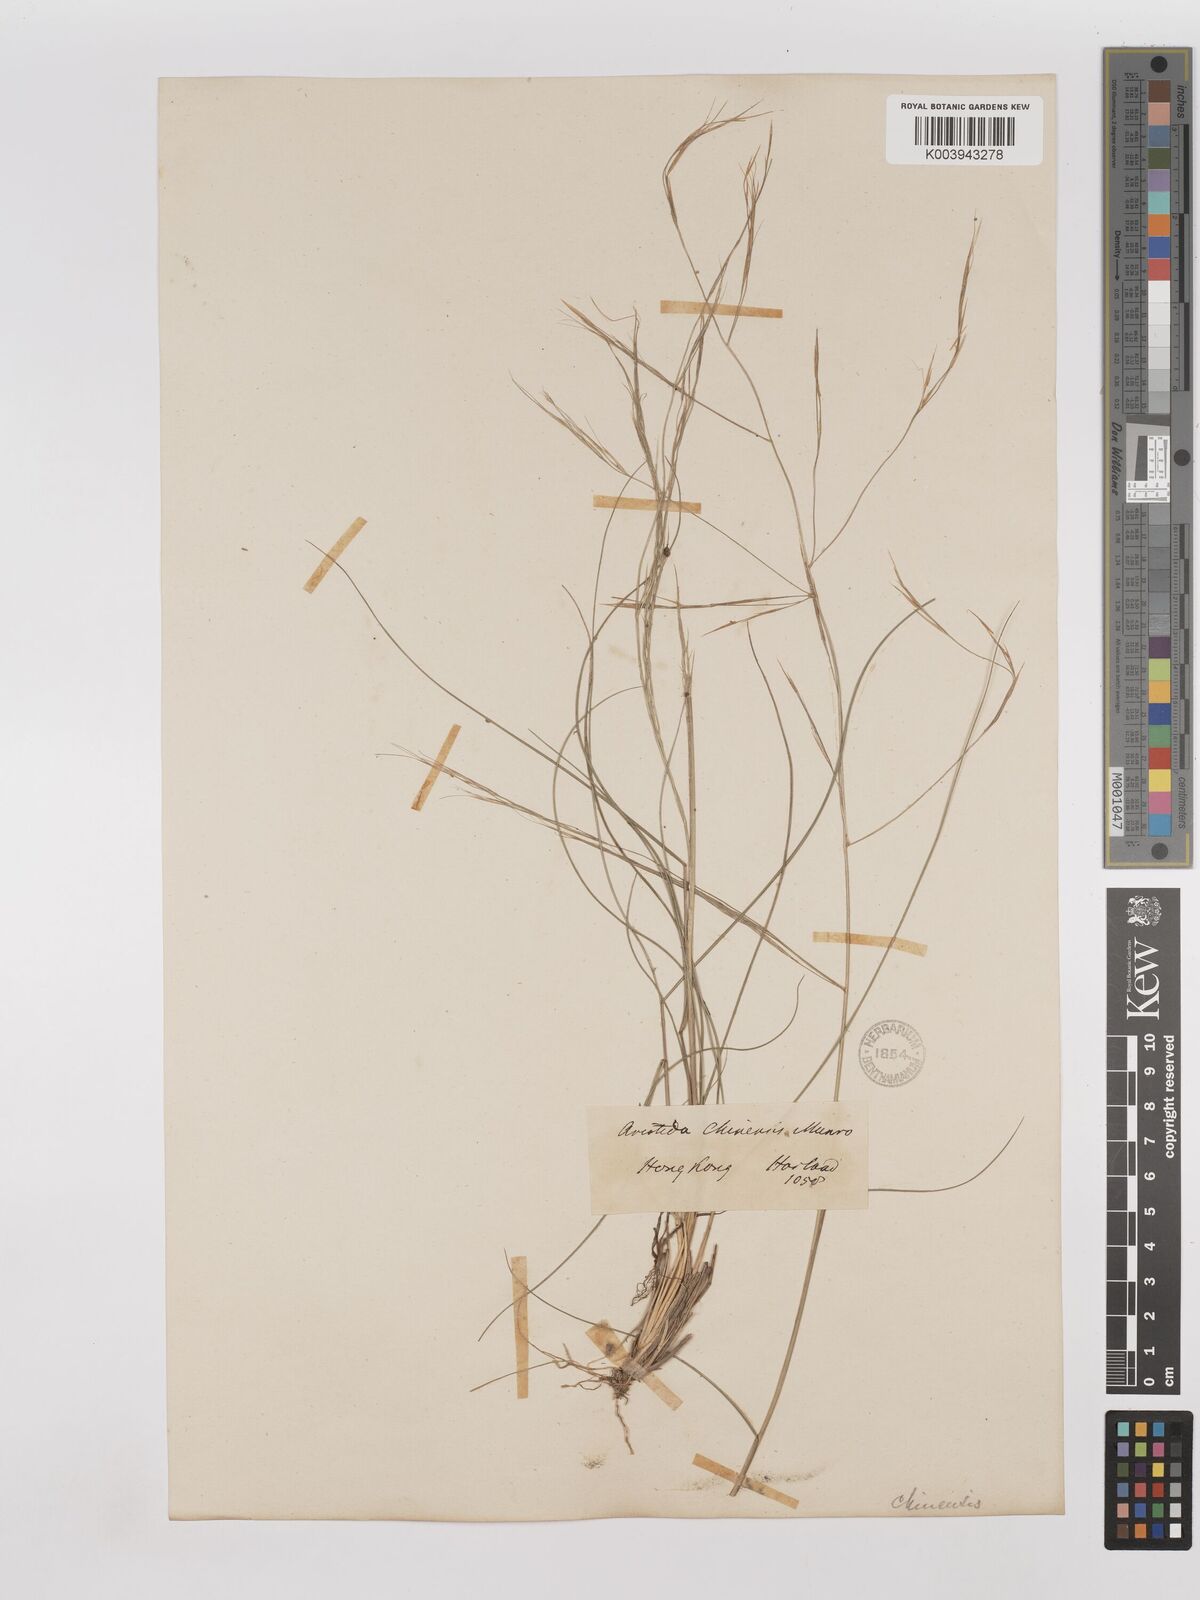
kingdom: Plantae
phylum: Tracheophyta
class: Liliopsida
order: Poales
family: Poaceae
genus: Aristida
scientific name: Aristida chinensis
